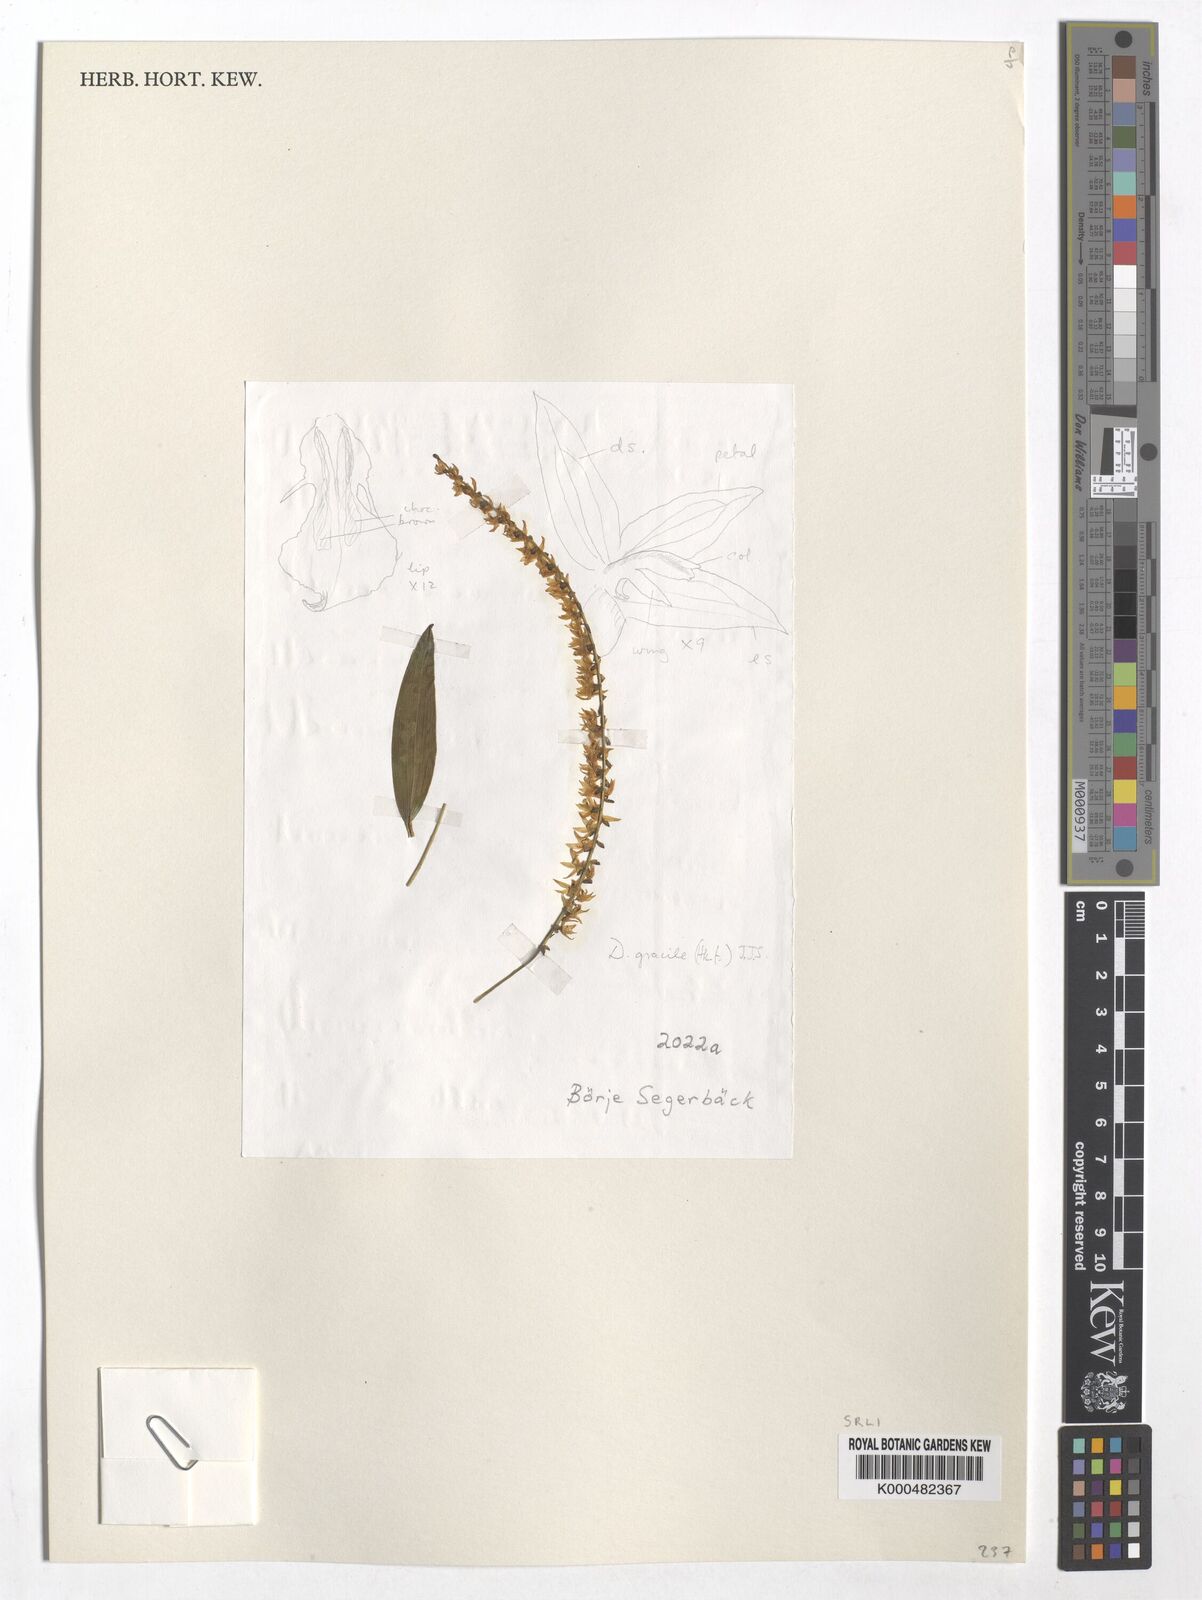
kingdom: Plantae
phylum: Tracheophyta
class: Liliopsida
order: Asparagales
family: Orchidaceae
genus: Coelogyne
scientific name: Coelogyne gracilis
